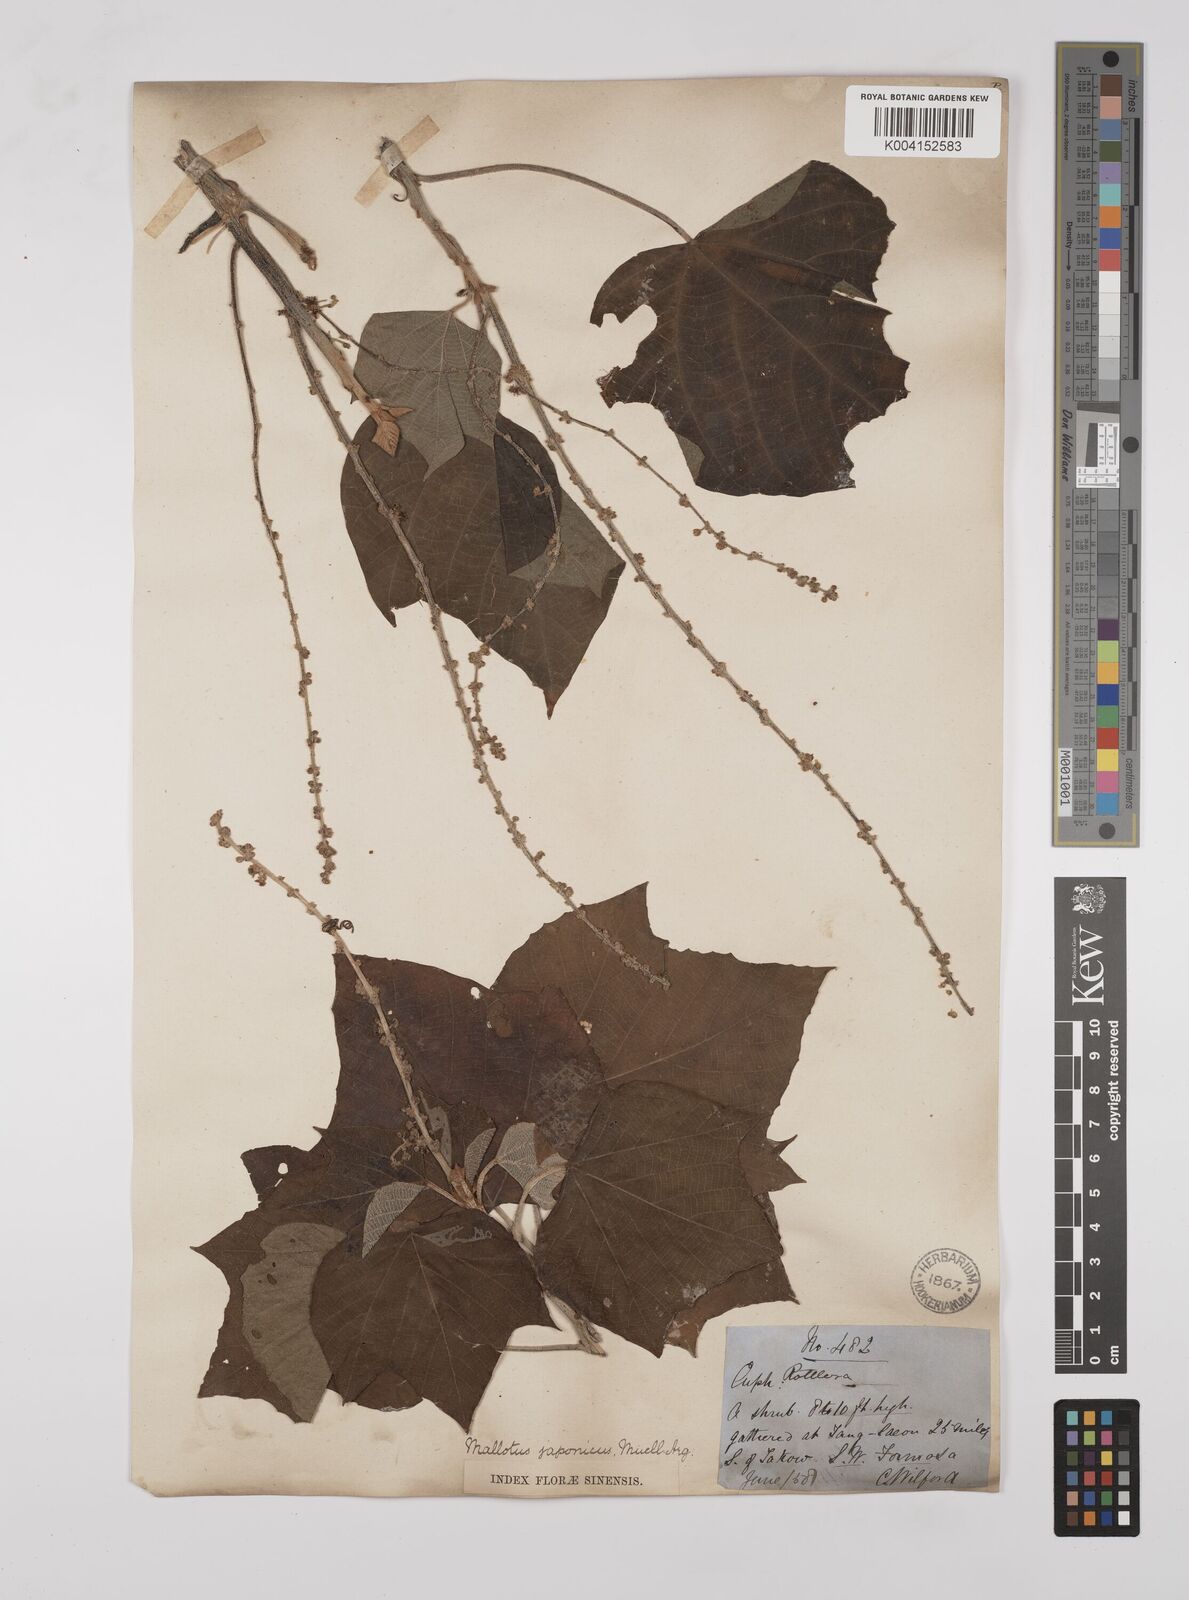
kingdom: Plantae
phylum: Tracheophyta
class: Magnoliopsida
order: Malpighiales
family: Euphorbiaceae
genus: Mallotus
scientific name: Mallotus japonicus
